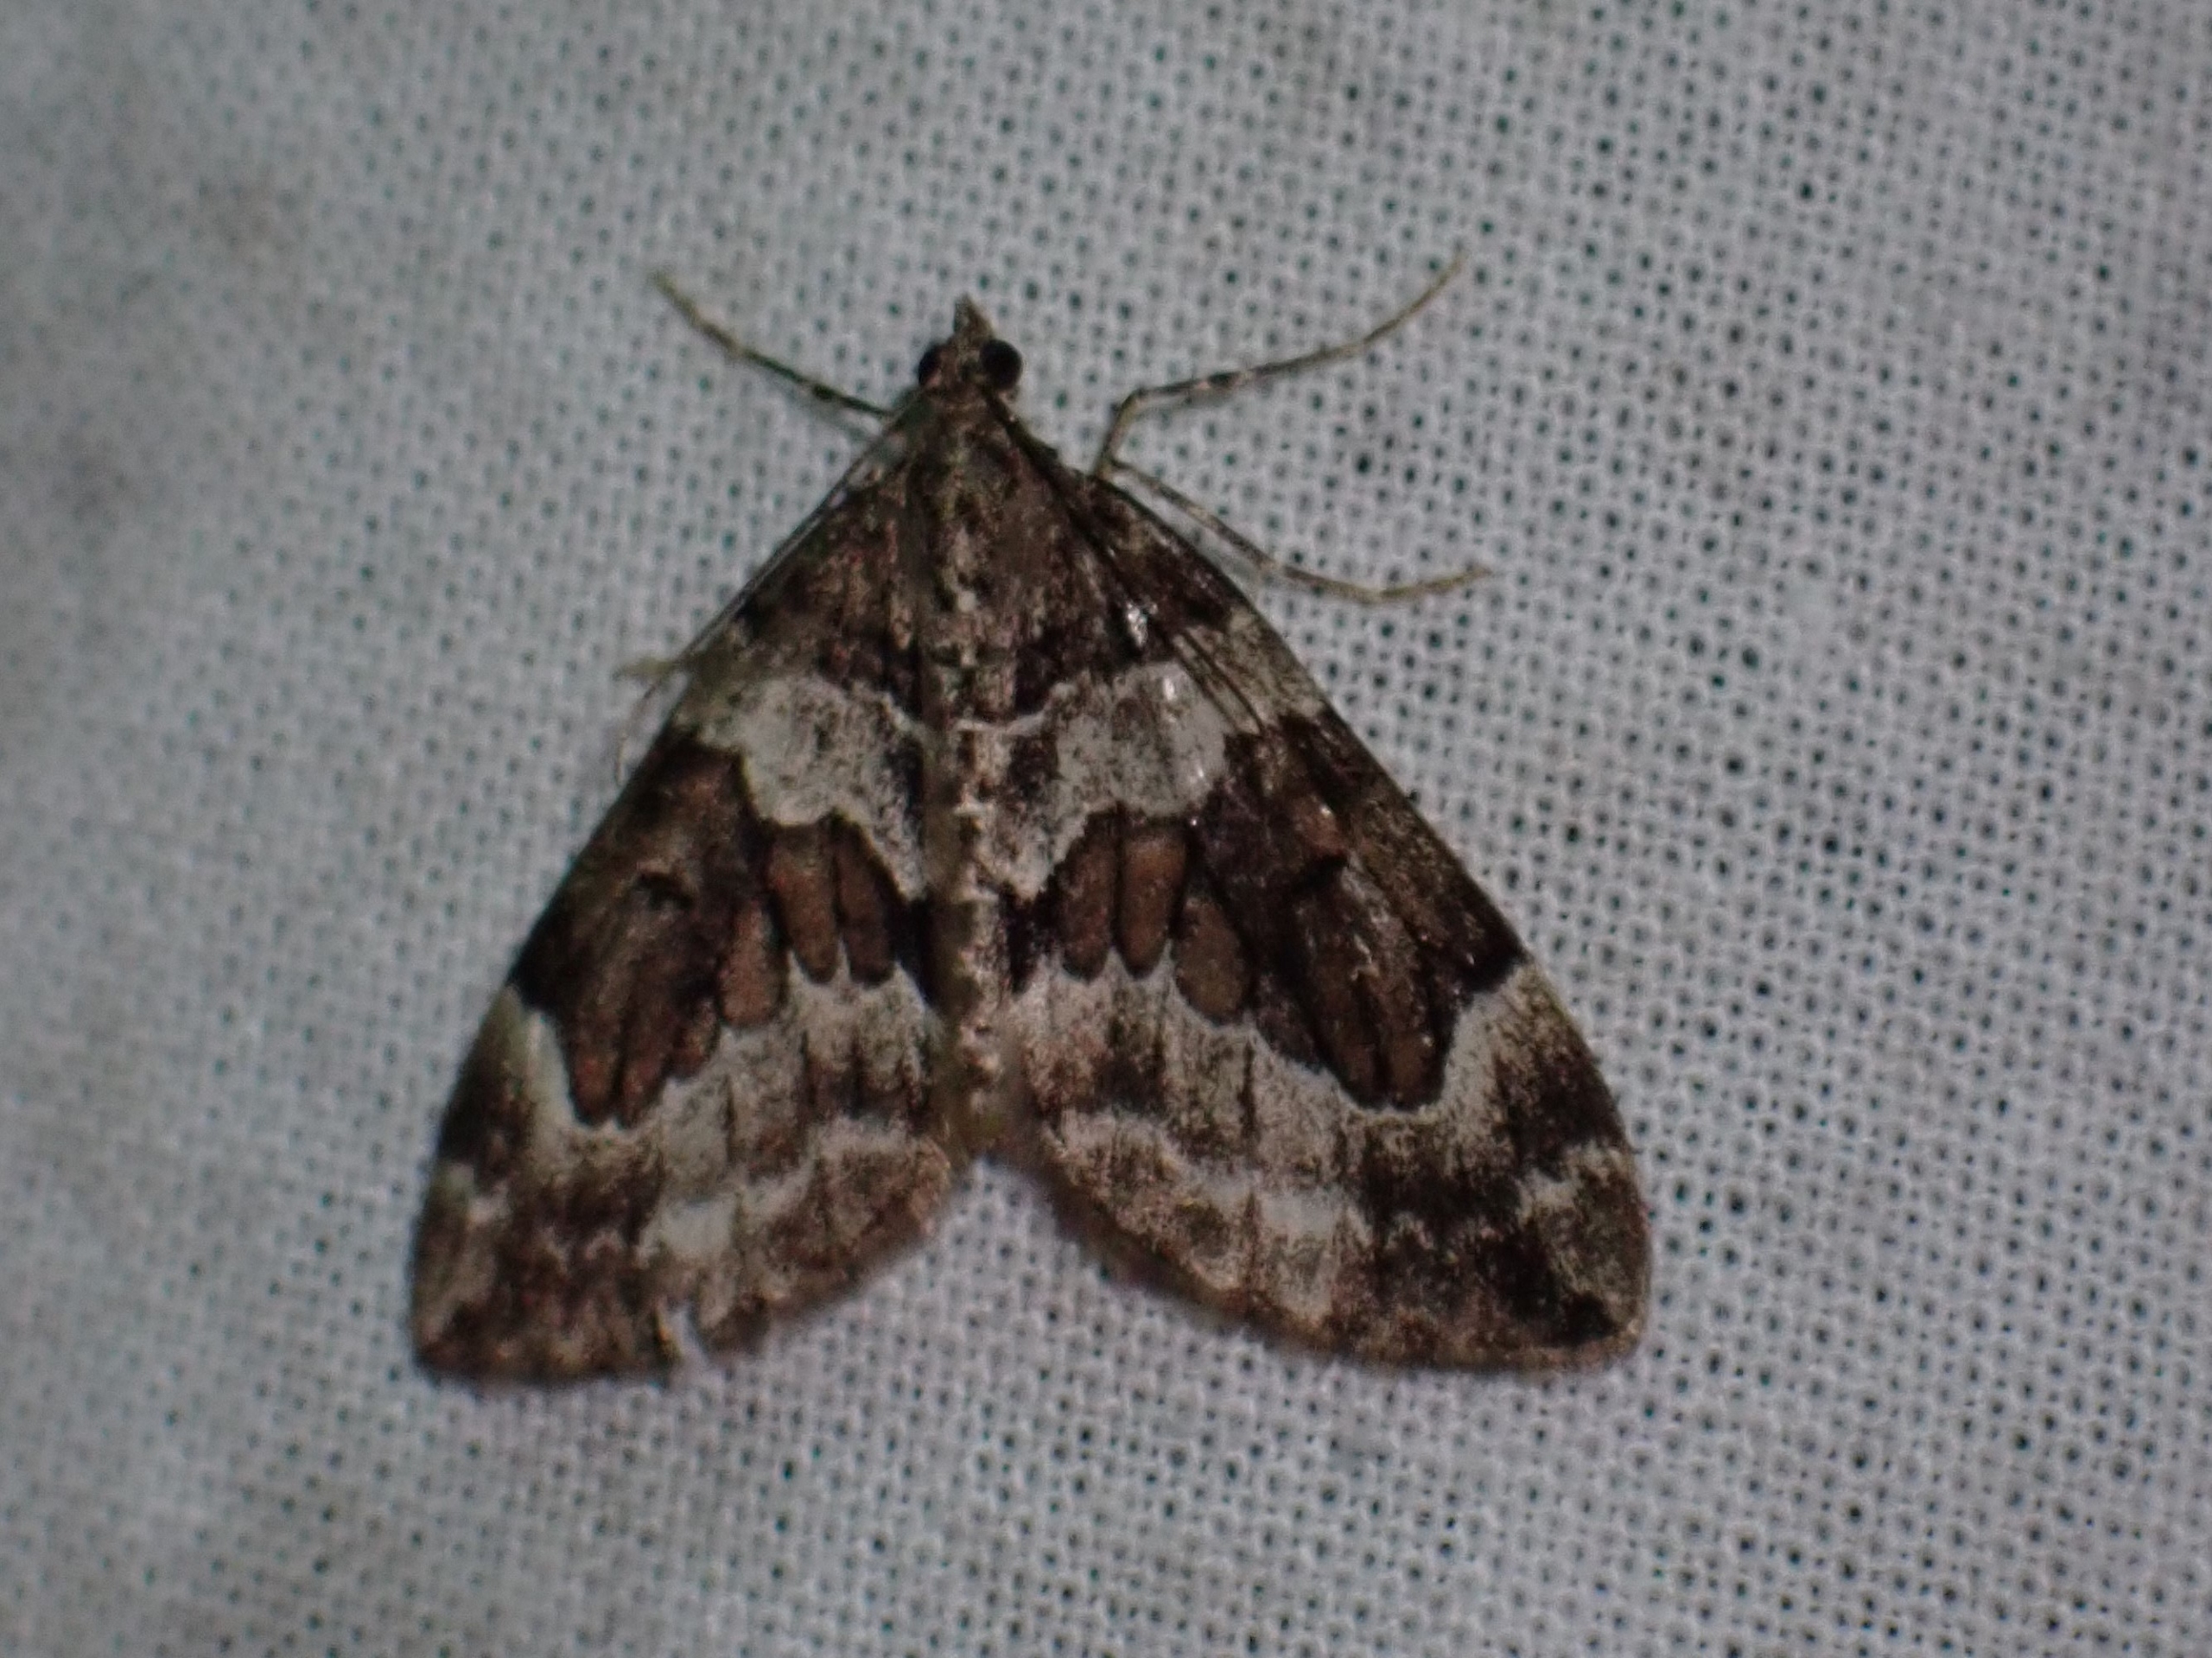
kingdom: Animalia
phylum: Arthropoda
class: Insecta
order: Lepidoptera
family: Geometridae
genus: Thera
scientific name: Thera obeliscata
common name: Grå fyrremåler
